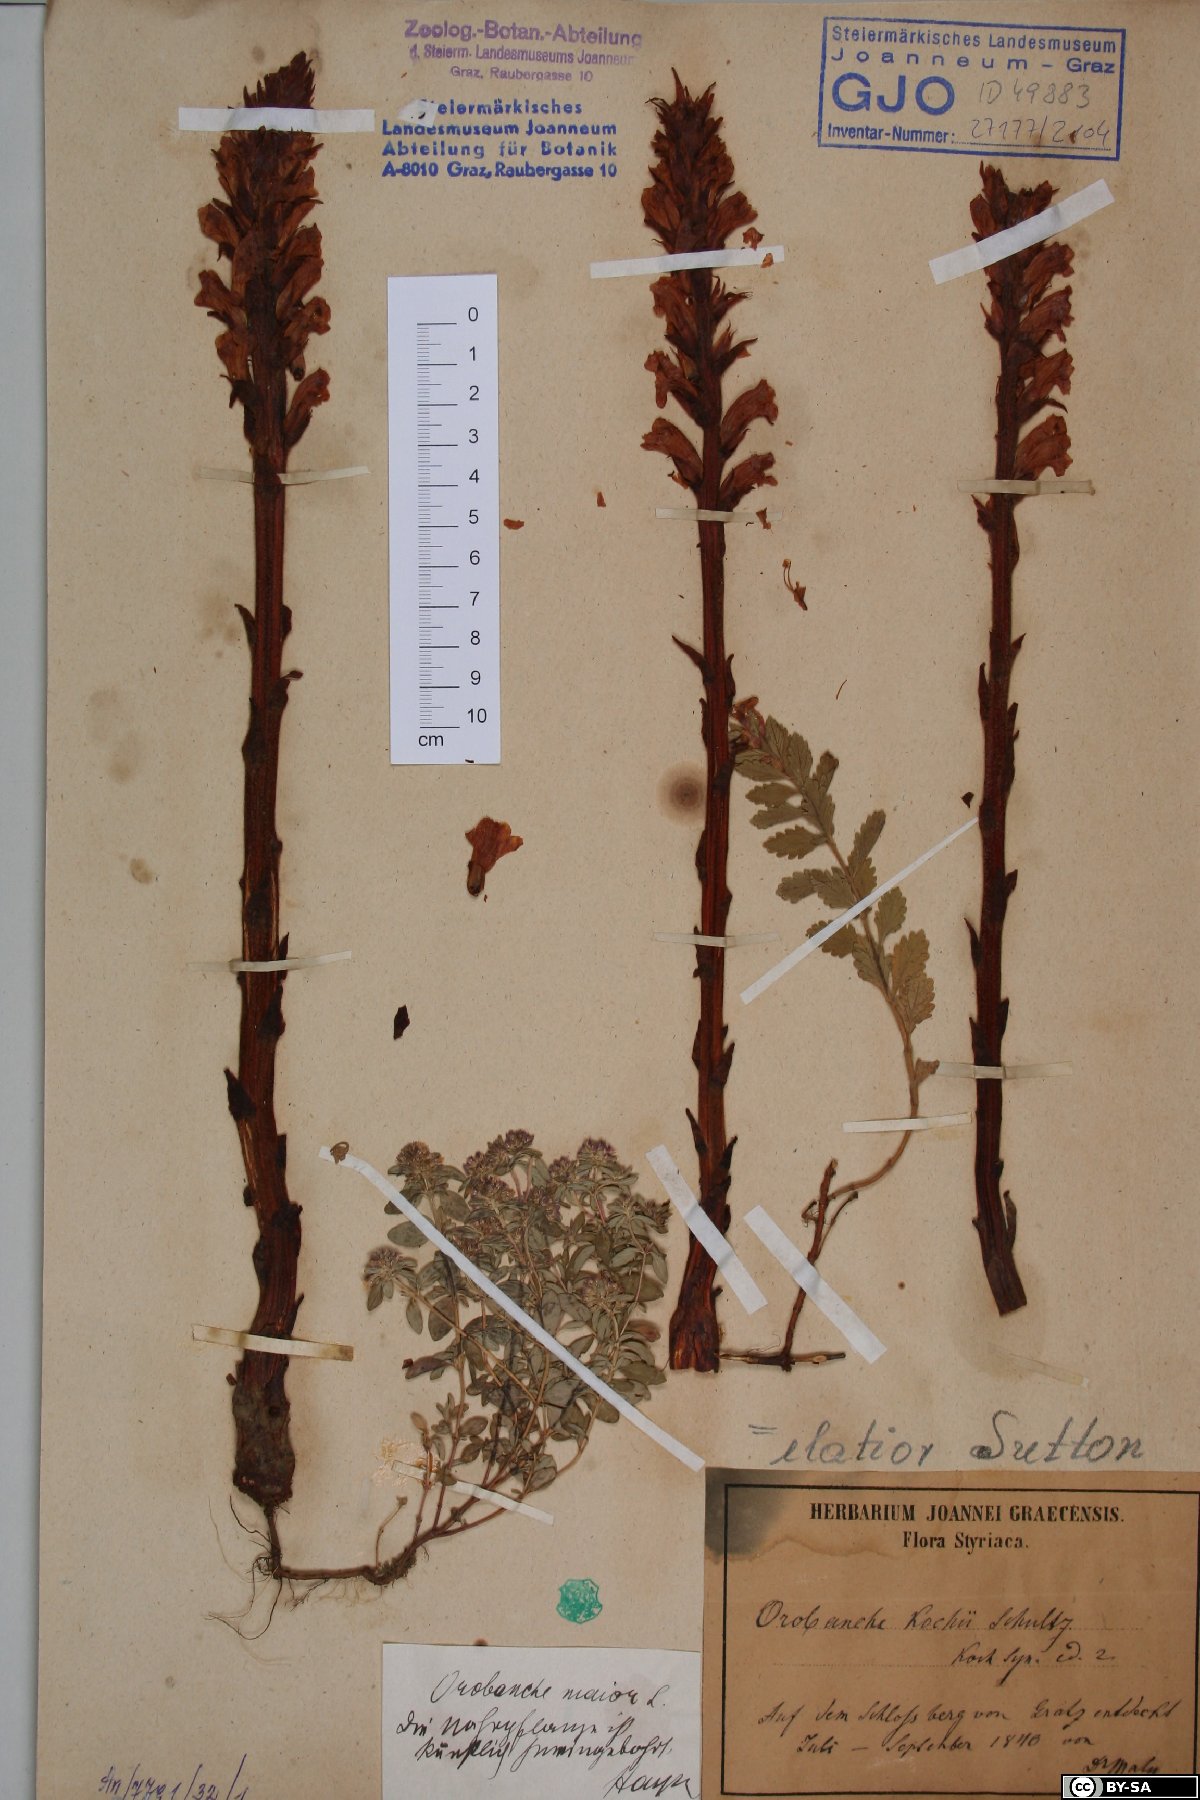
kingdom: Plantae
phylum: Tracheophyta
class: Magnoliopsida
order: Lamiales
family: Orobanchaceae
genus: Orobanche
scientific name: Orobanche centaurina
